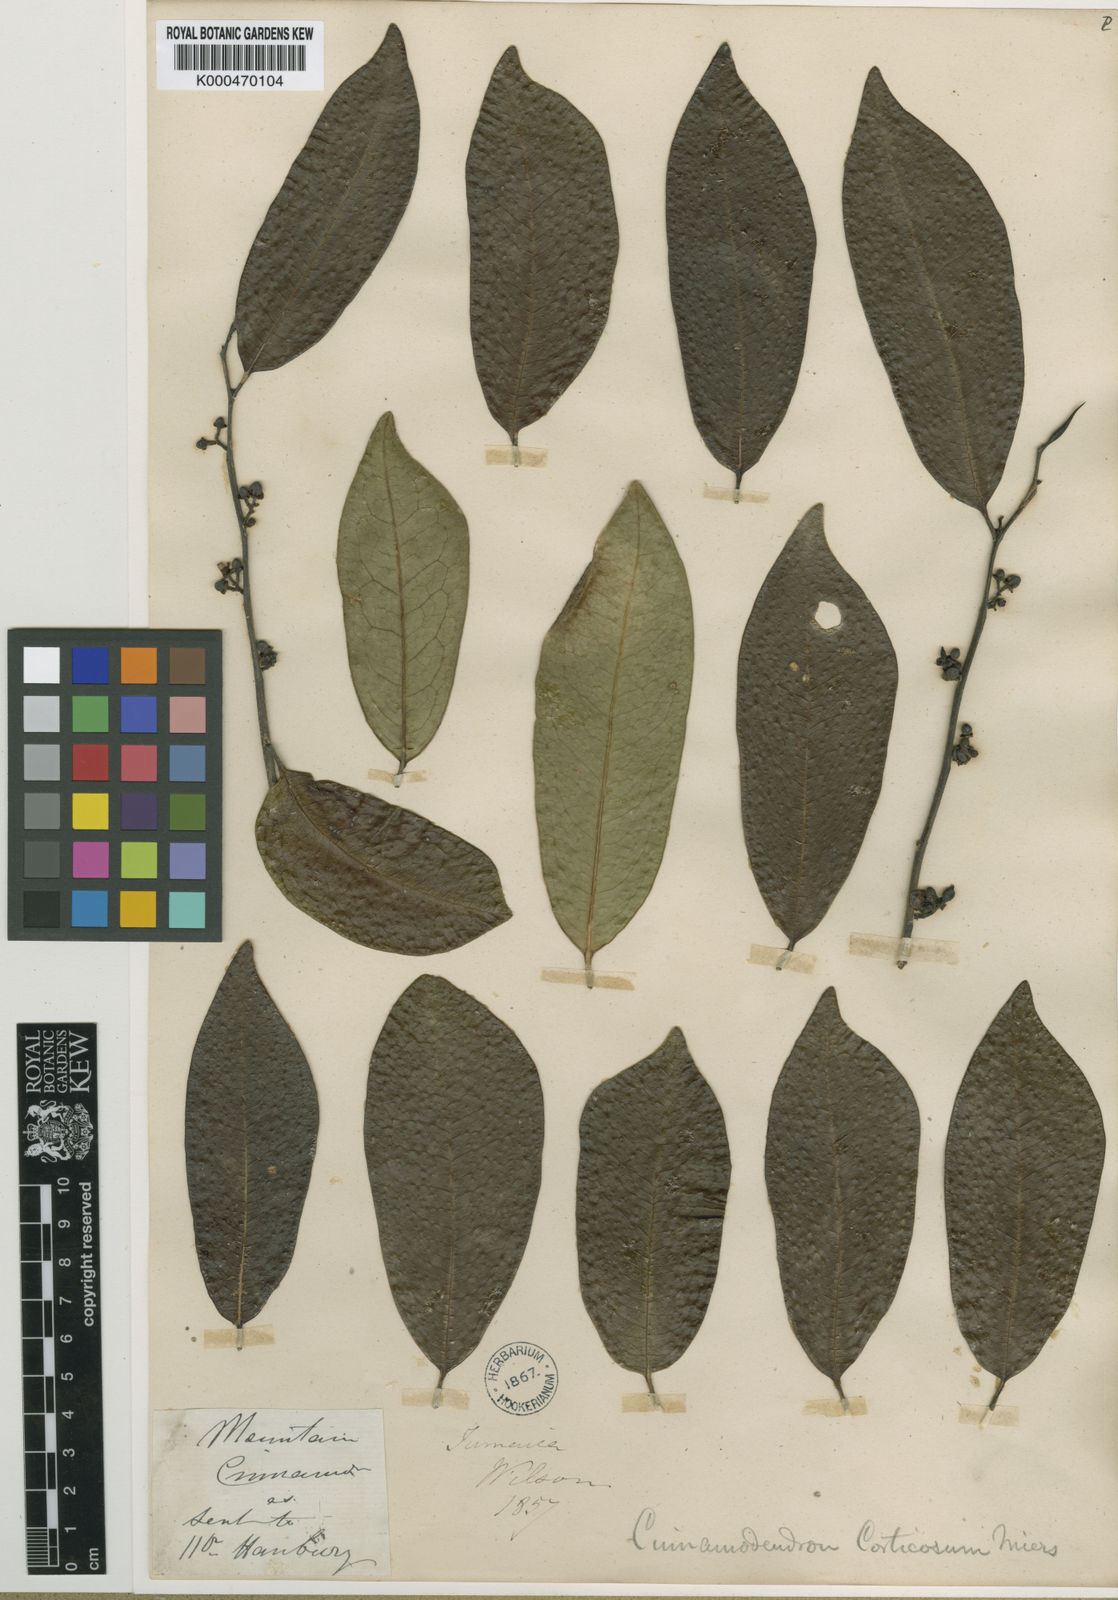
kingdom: Plantae
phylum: Tracheophyta
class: Magnoliopsida
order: Canellales
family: Canellaceae
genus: Canella
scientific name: Canella
